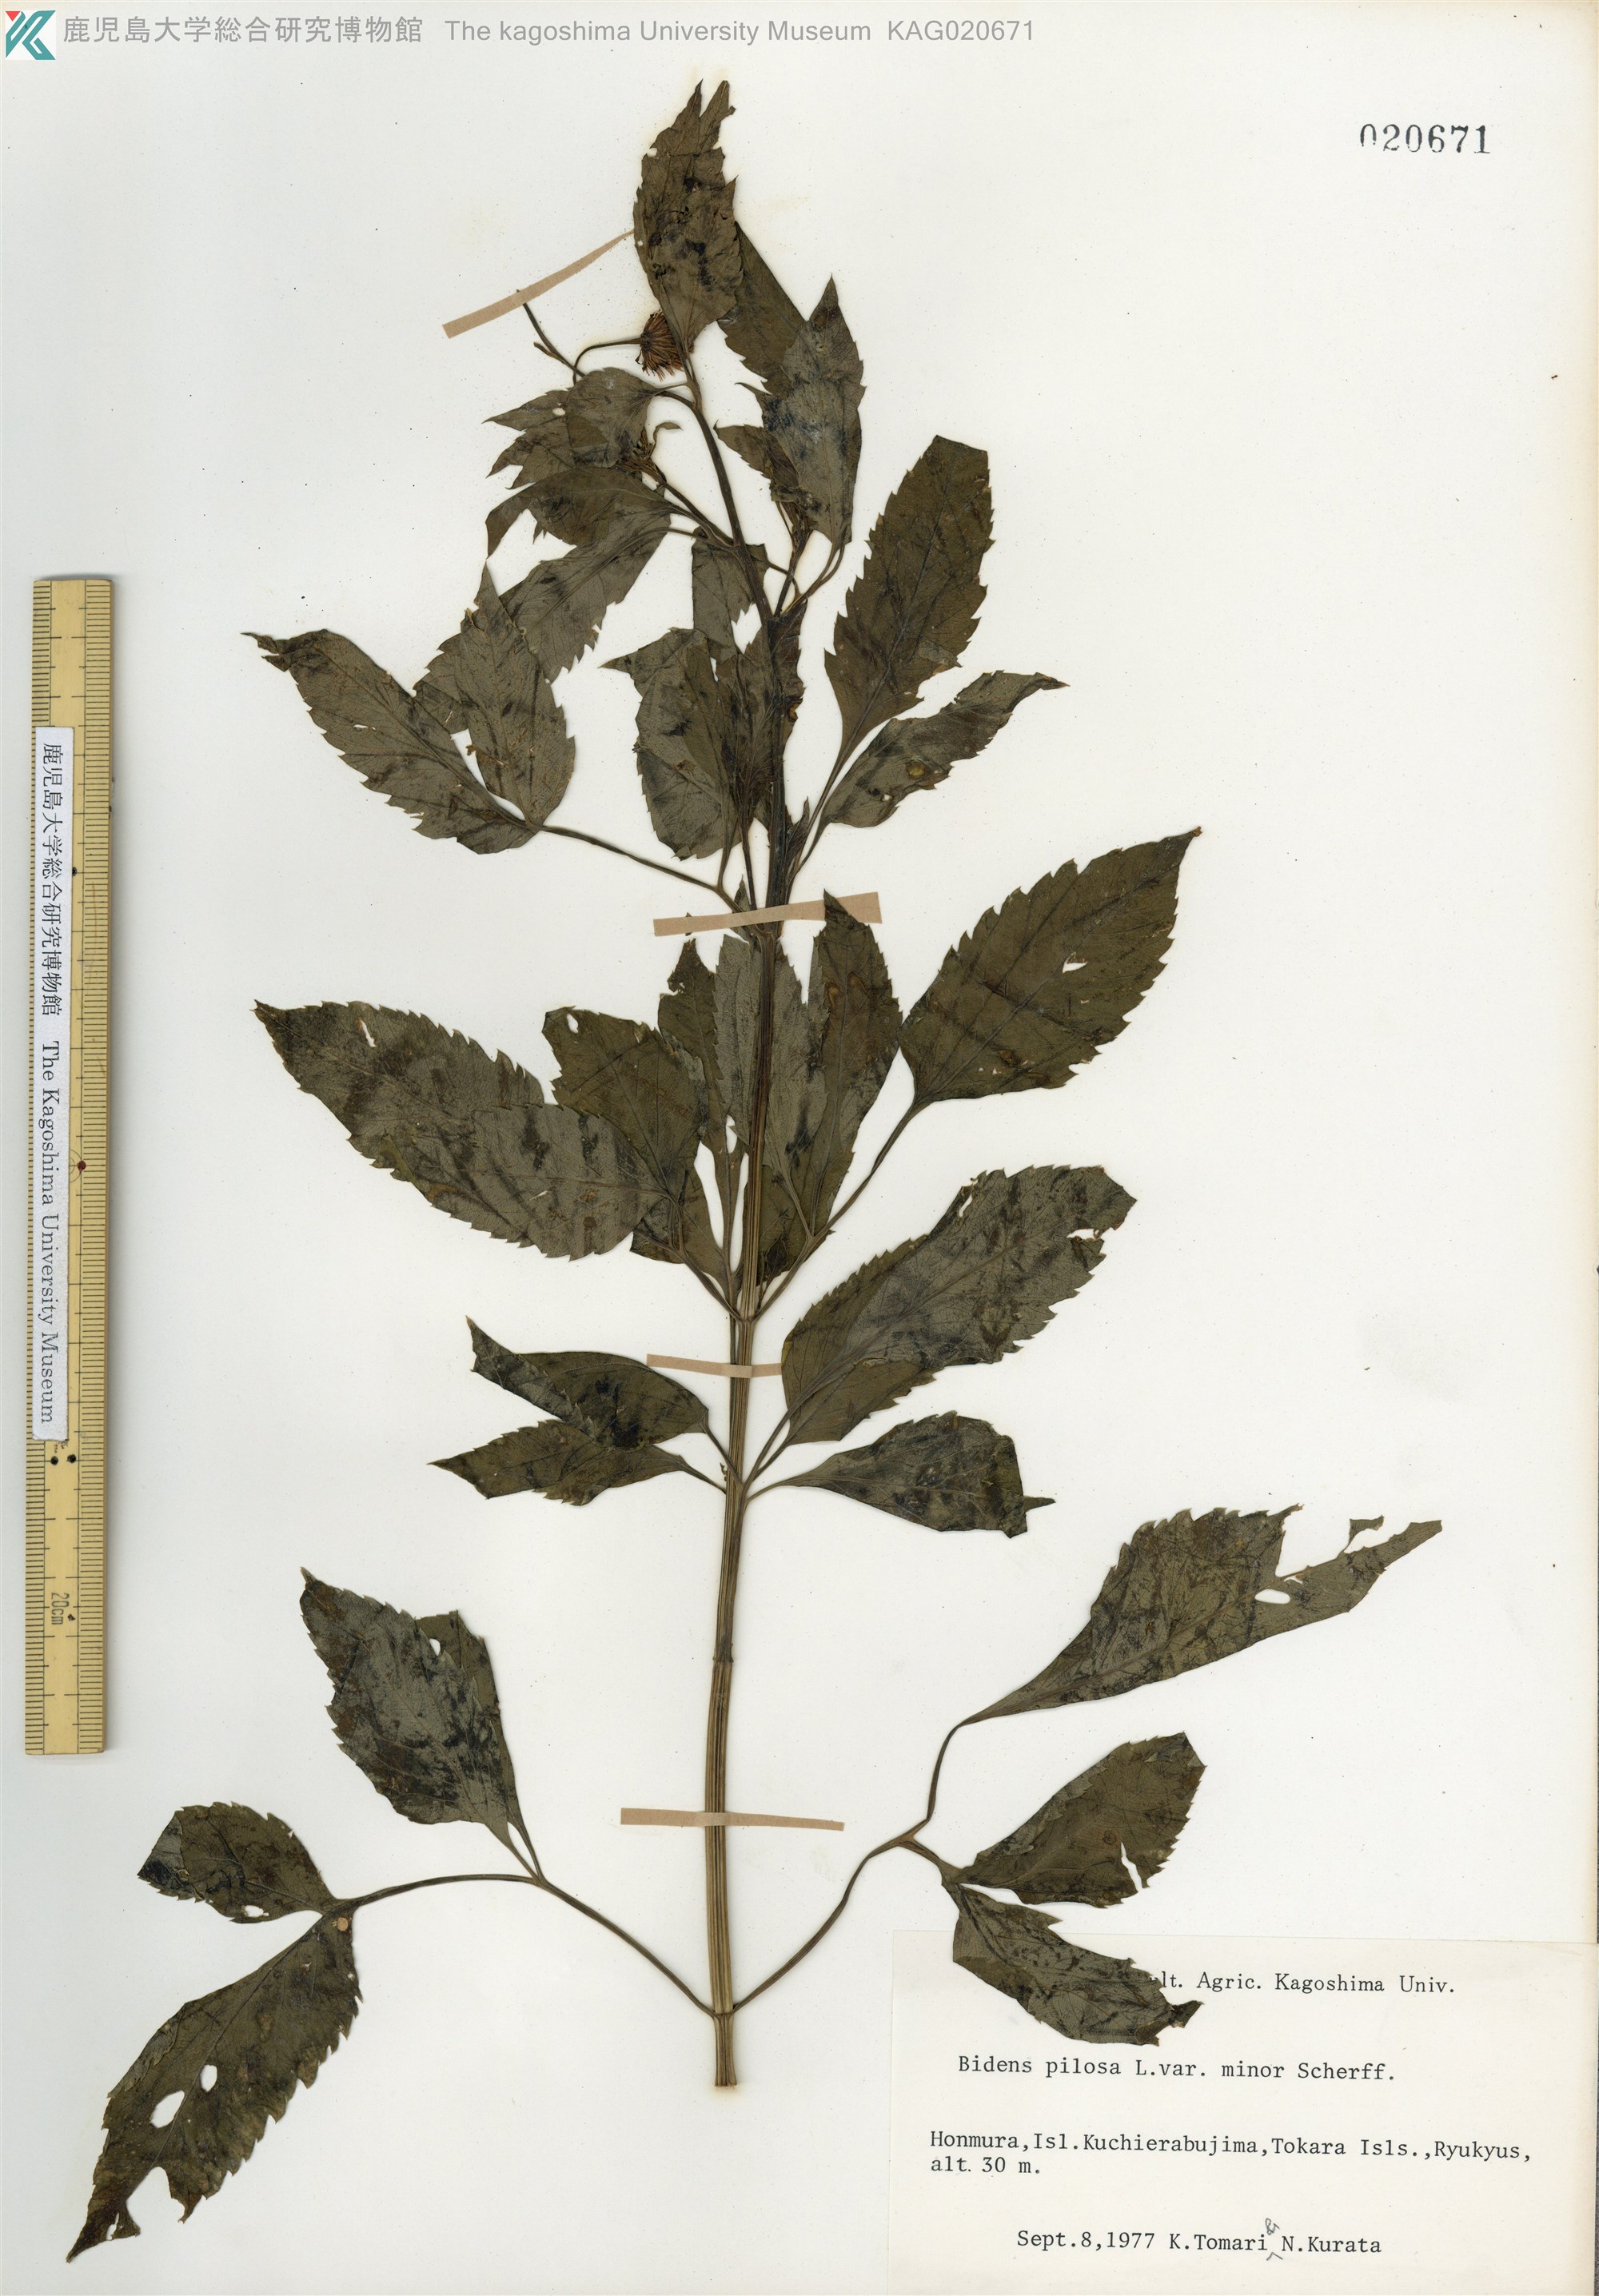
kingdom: Plantae
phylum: Tracheophyta
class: Magnoliopsida
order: Asterales
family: Asteraceae
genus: Bidens
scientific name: Bidens pilosa
